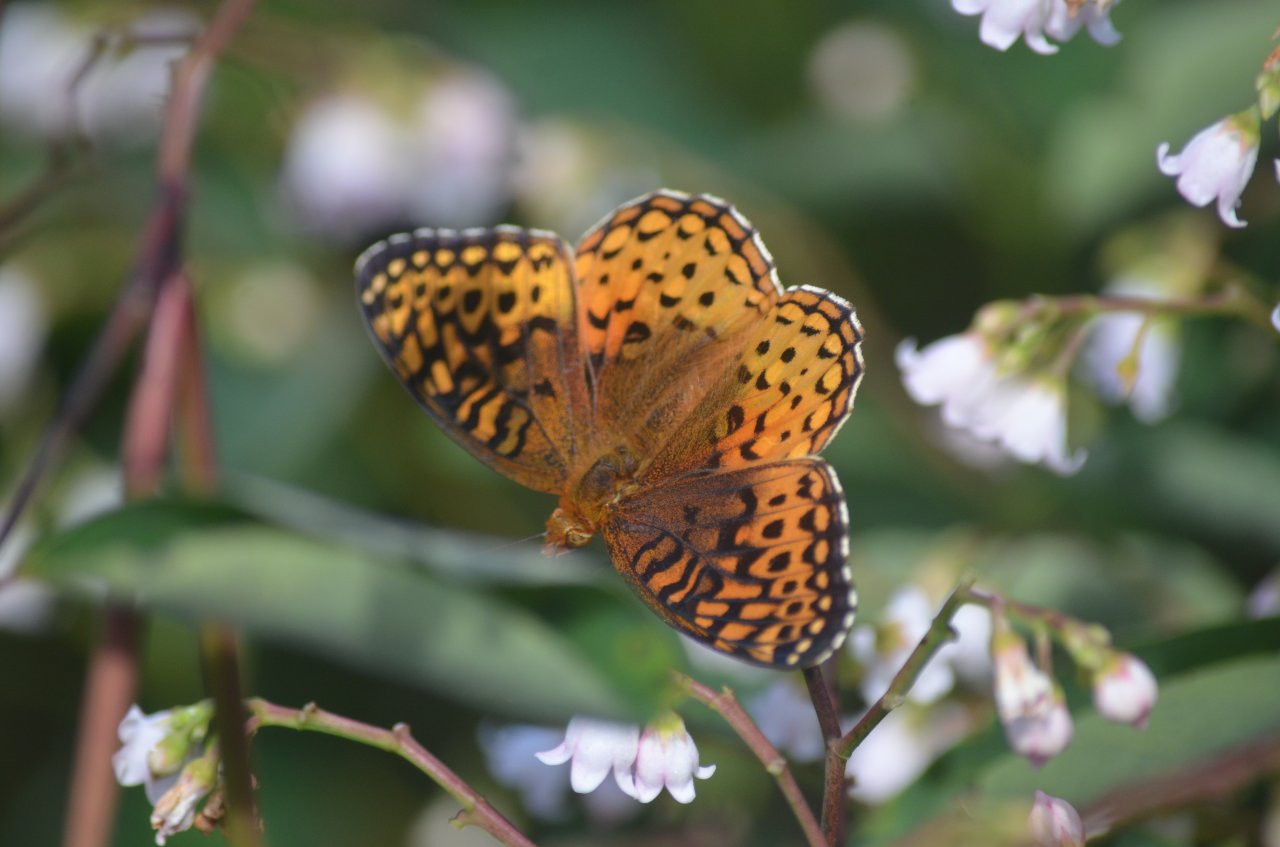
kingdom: Animalia
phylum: Arthropoda
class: Insecta
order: Lepidoptera
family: Nymphalidae
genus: Speyeria
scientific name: Speyeria aphrodite
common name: Aphrodite Fritillary
